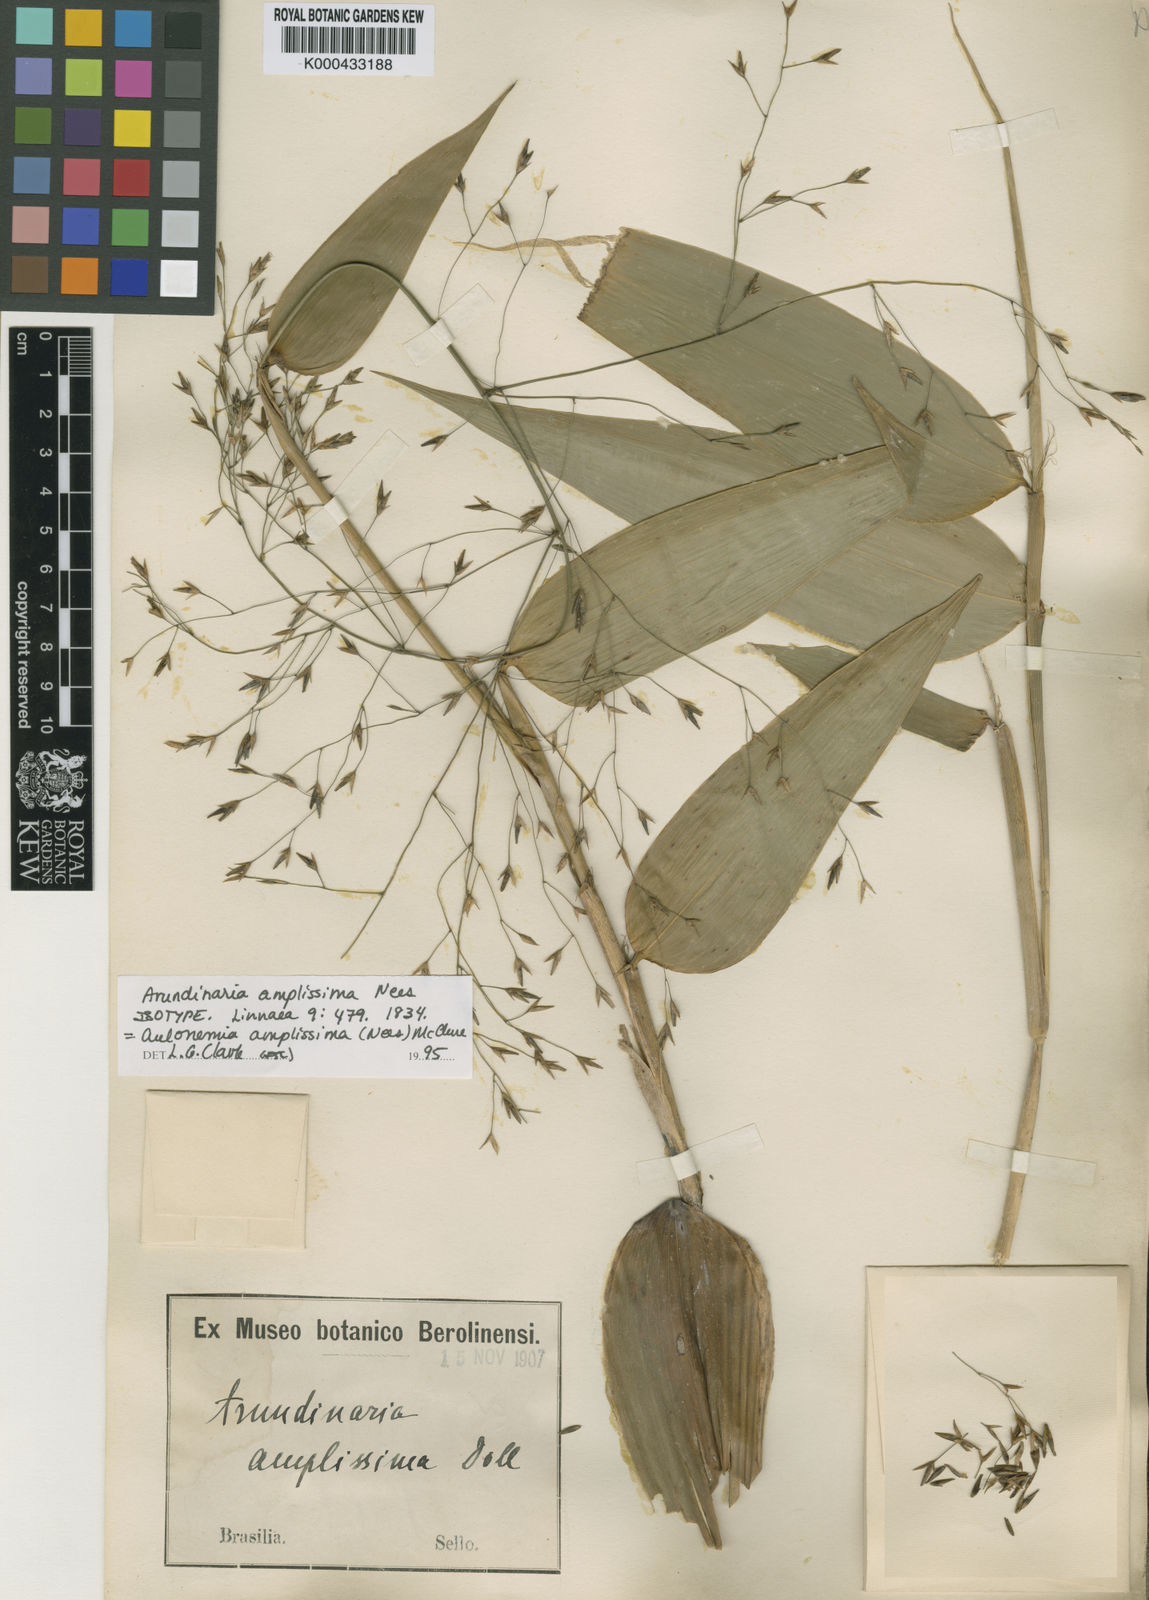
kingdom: Plantae
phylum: Tracheophyta
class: Liliopsida
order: Poales
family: Poaceae
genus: Aulonemia
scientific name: Aulonemia amplissima
